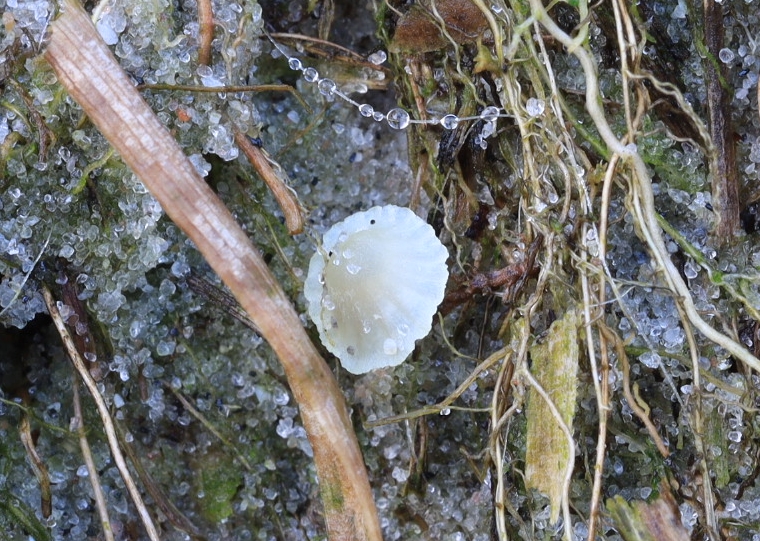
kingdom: Fungi
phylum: Basidiomycota
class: Agaricomycetes
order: Agaricales
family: Mycenaceae
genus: Mycena
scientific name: Mycena chlorantha
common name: klit-huesvamp
